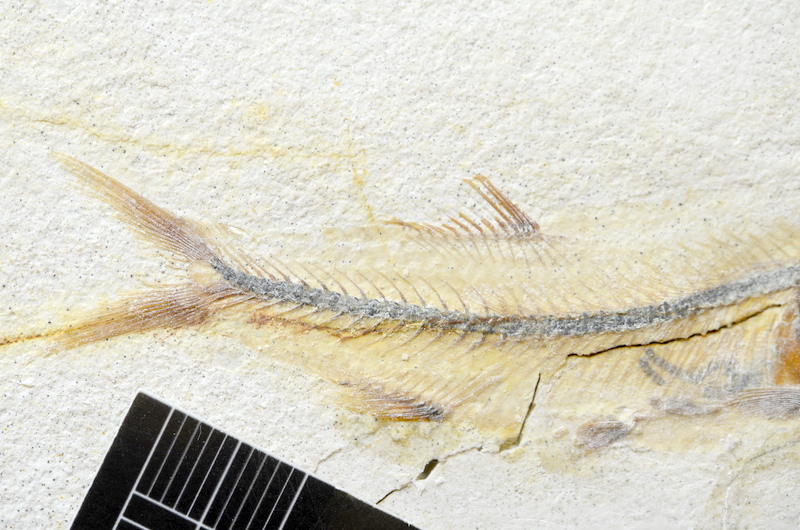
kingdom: Animalia
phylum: Chordata
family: Ascalaboidae
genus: Ebertichthys
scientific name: Ebertichthys ettlingensis
